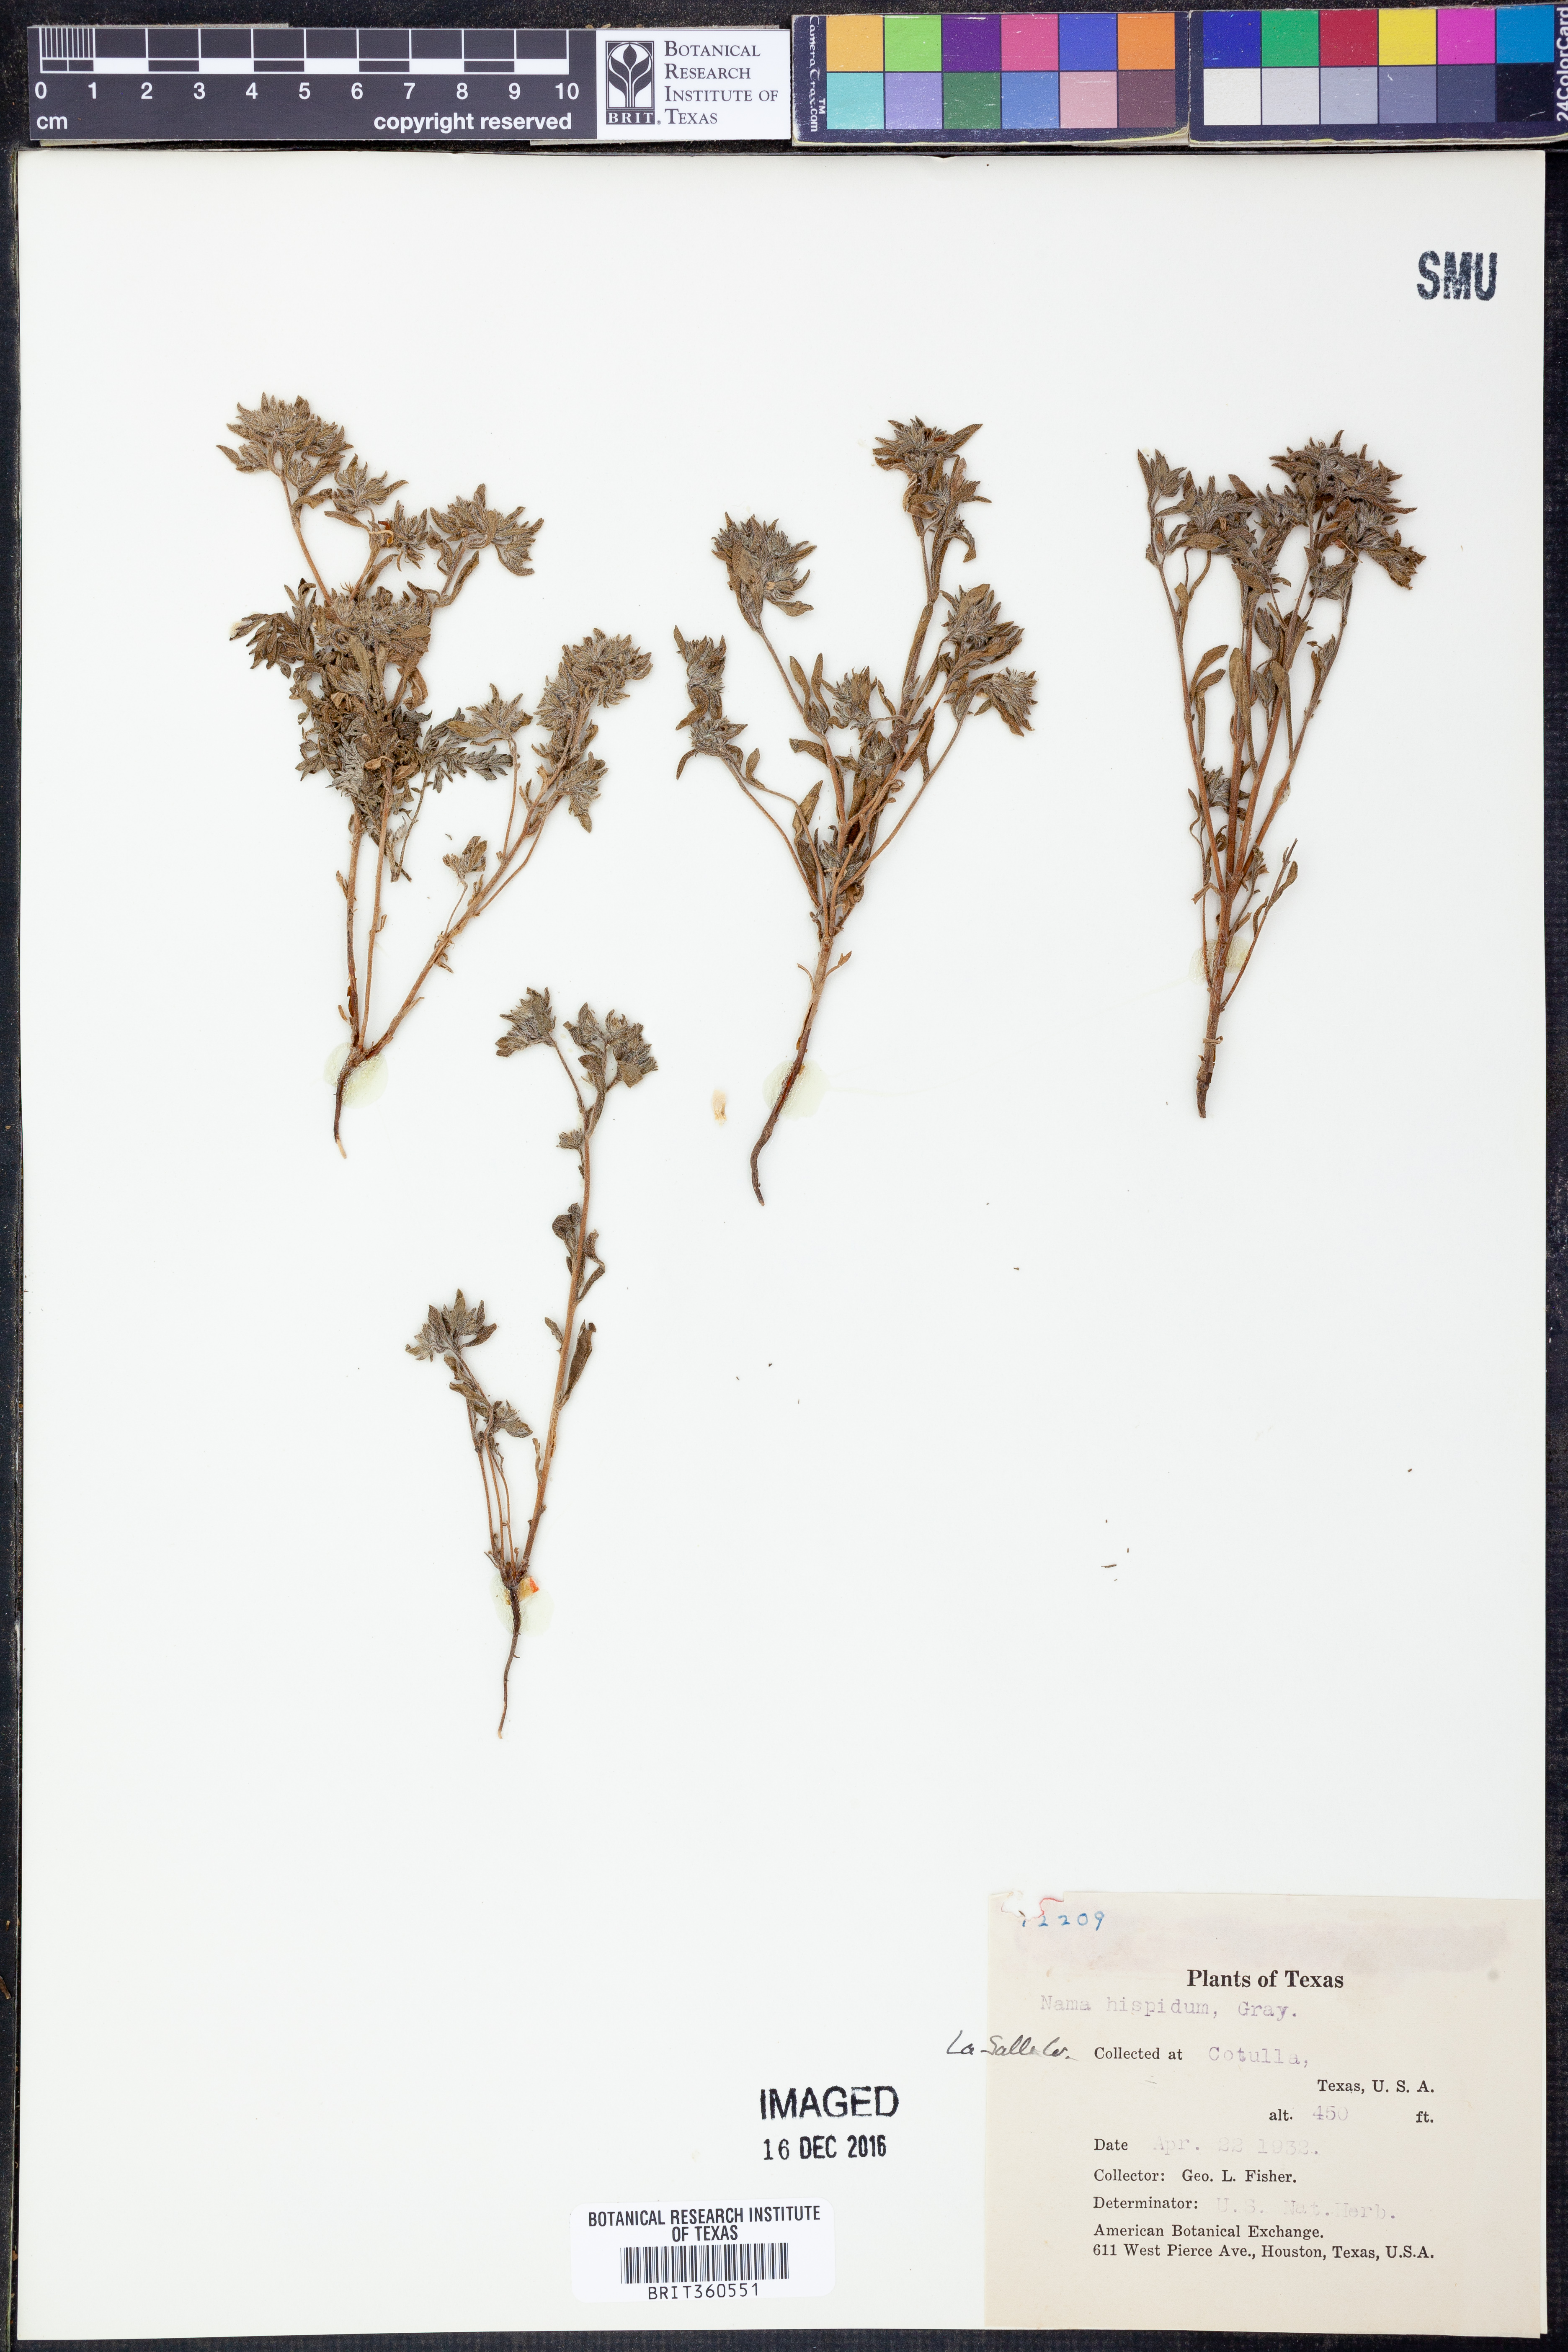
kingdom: Plantae
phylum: Tracheophyta
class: Magnoliopsida
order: Boraginales
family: Namaceae
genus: Nama
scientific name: Nama hispida
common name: Bristly nama
